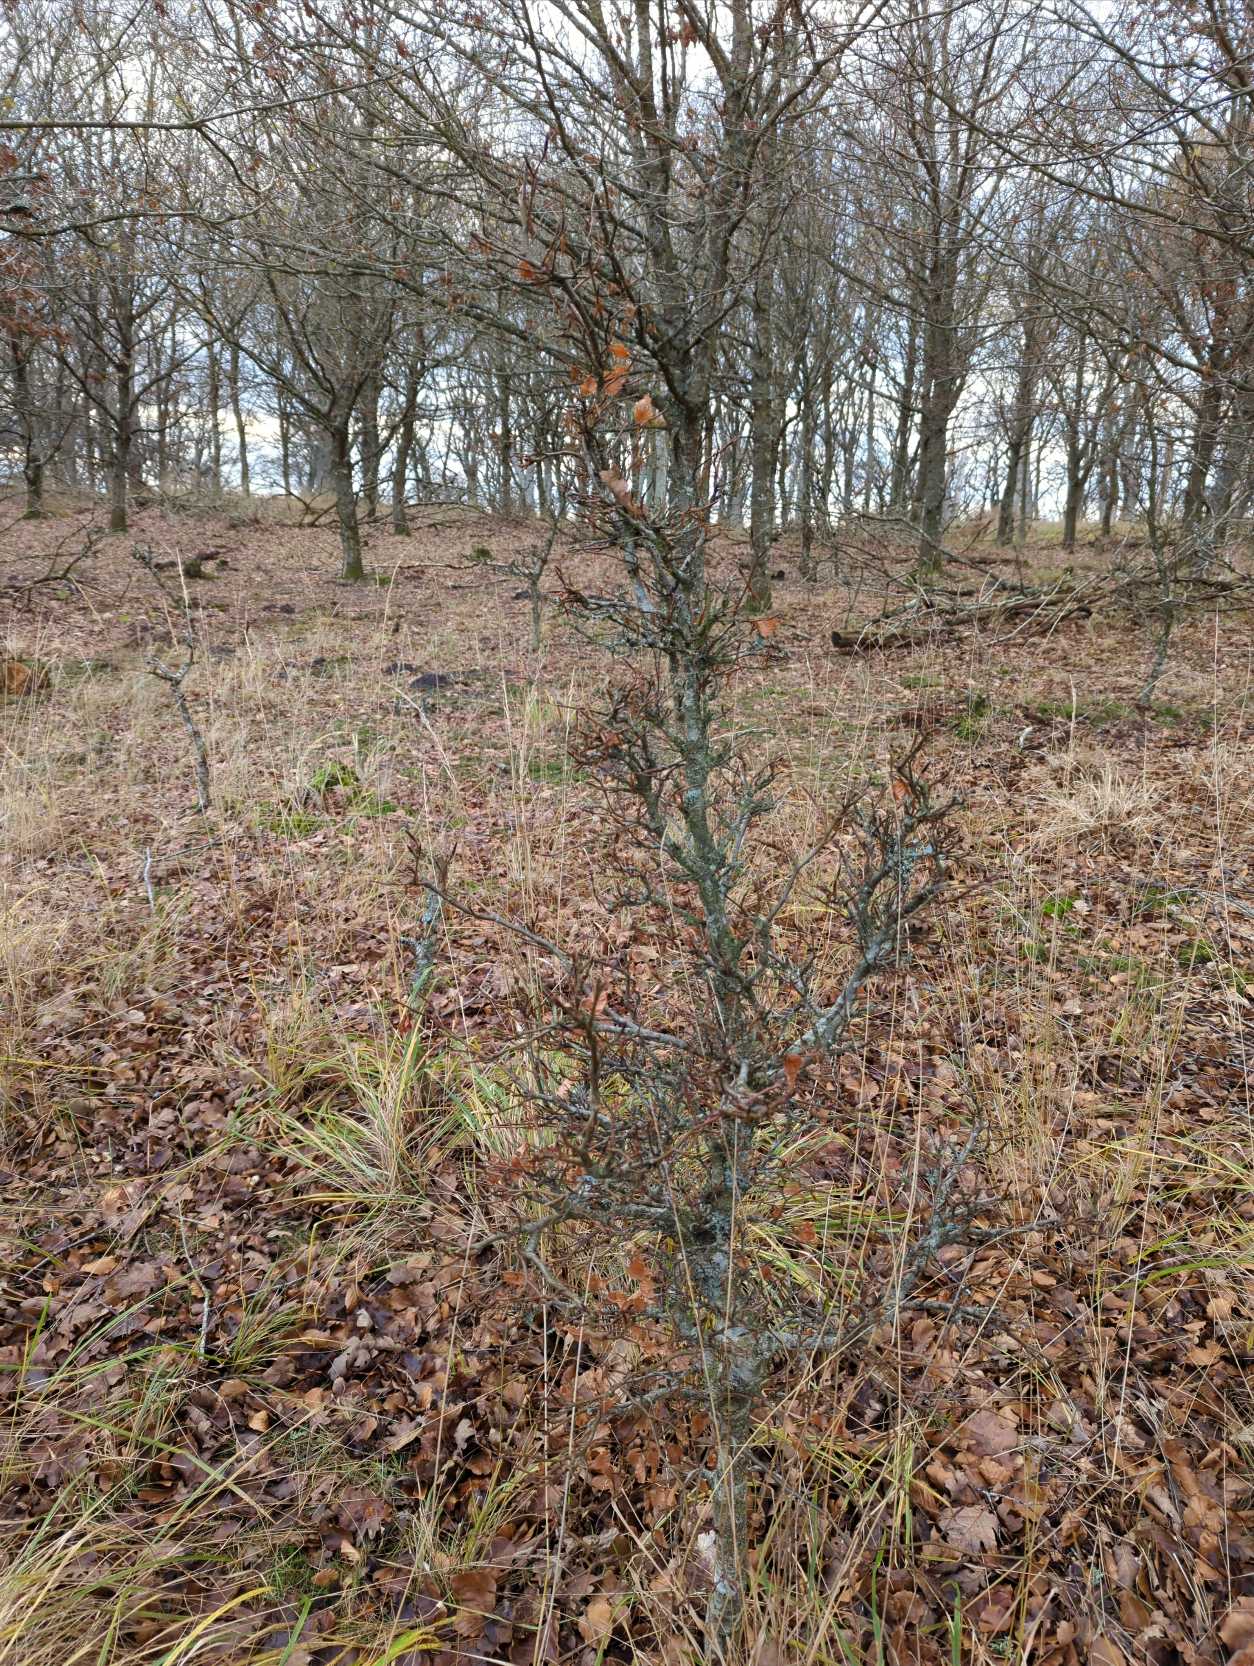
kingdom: Plantae
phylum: Tracheophyta
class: Magnoliopsida
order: Fagales
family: Fagaceae
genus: Fagus
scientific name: Fagus sylvatica
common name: Bøg
